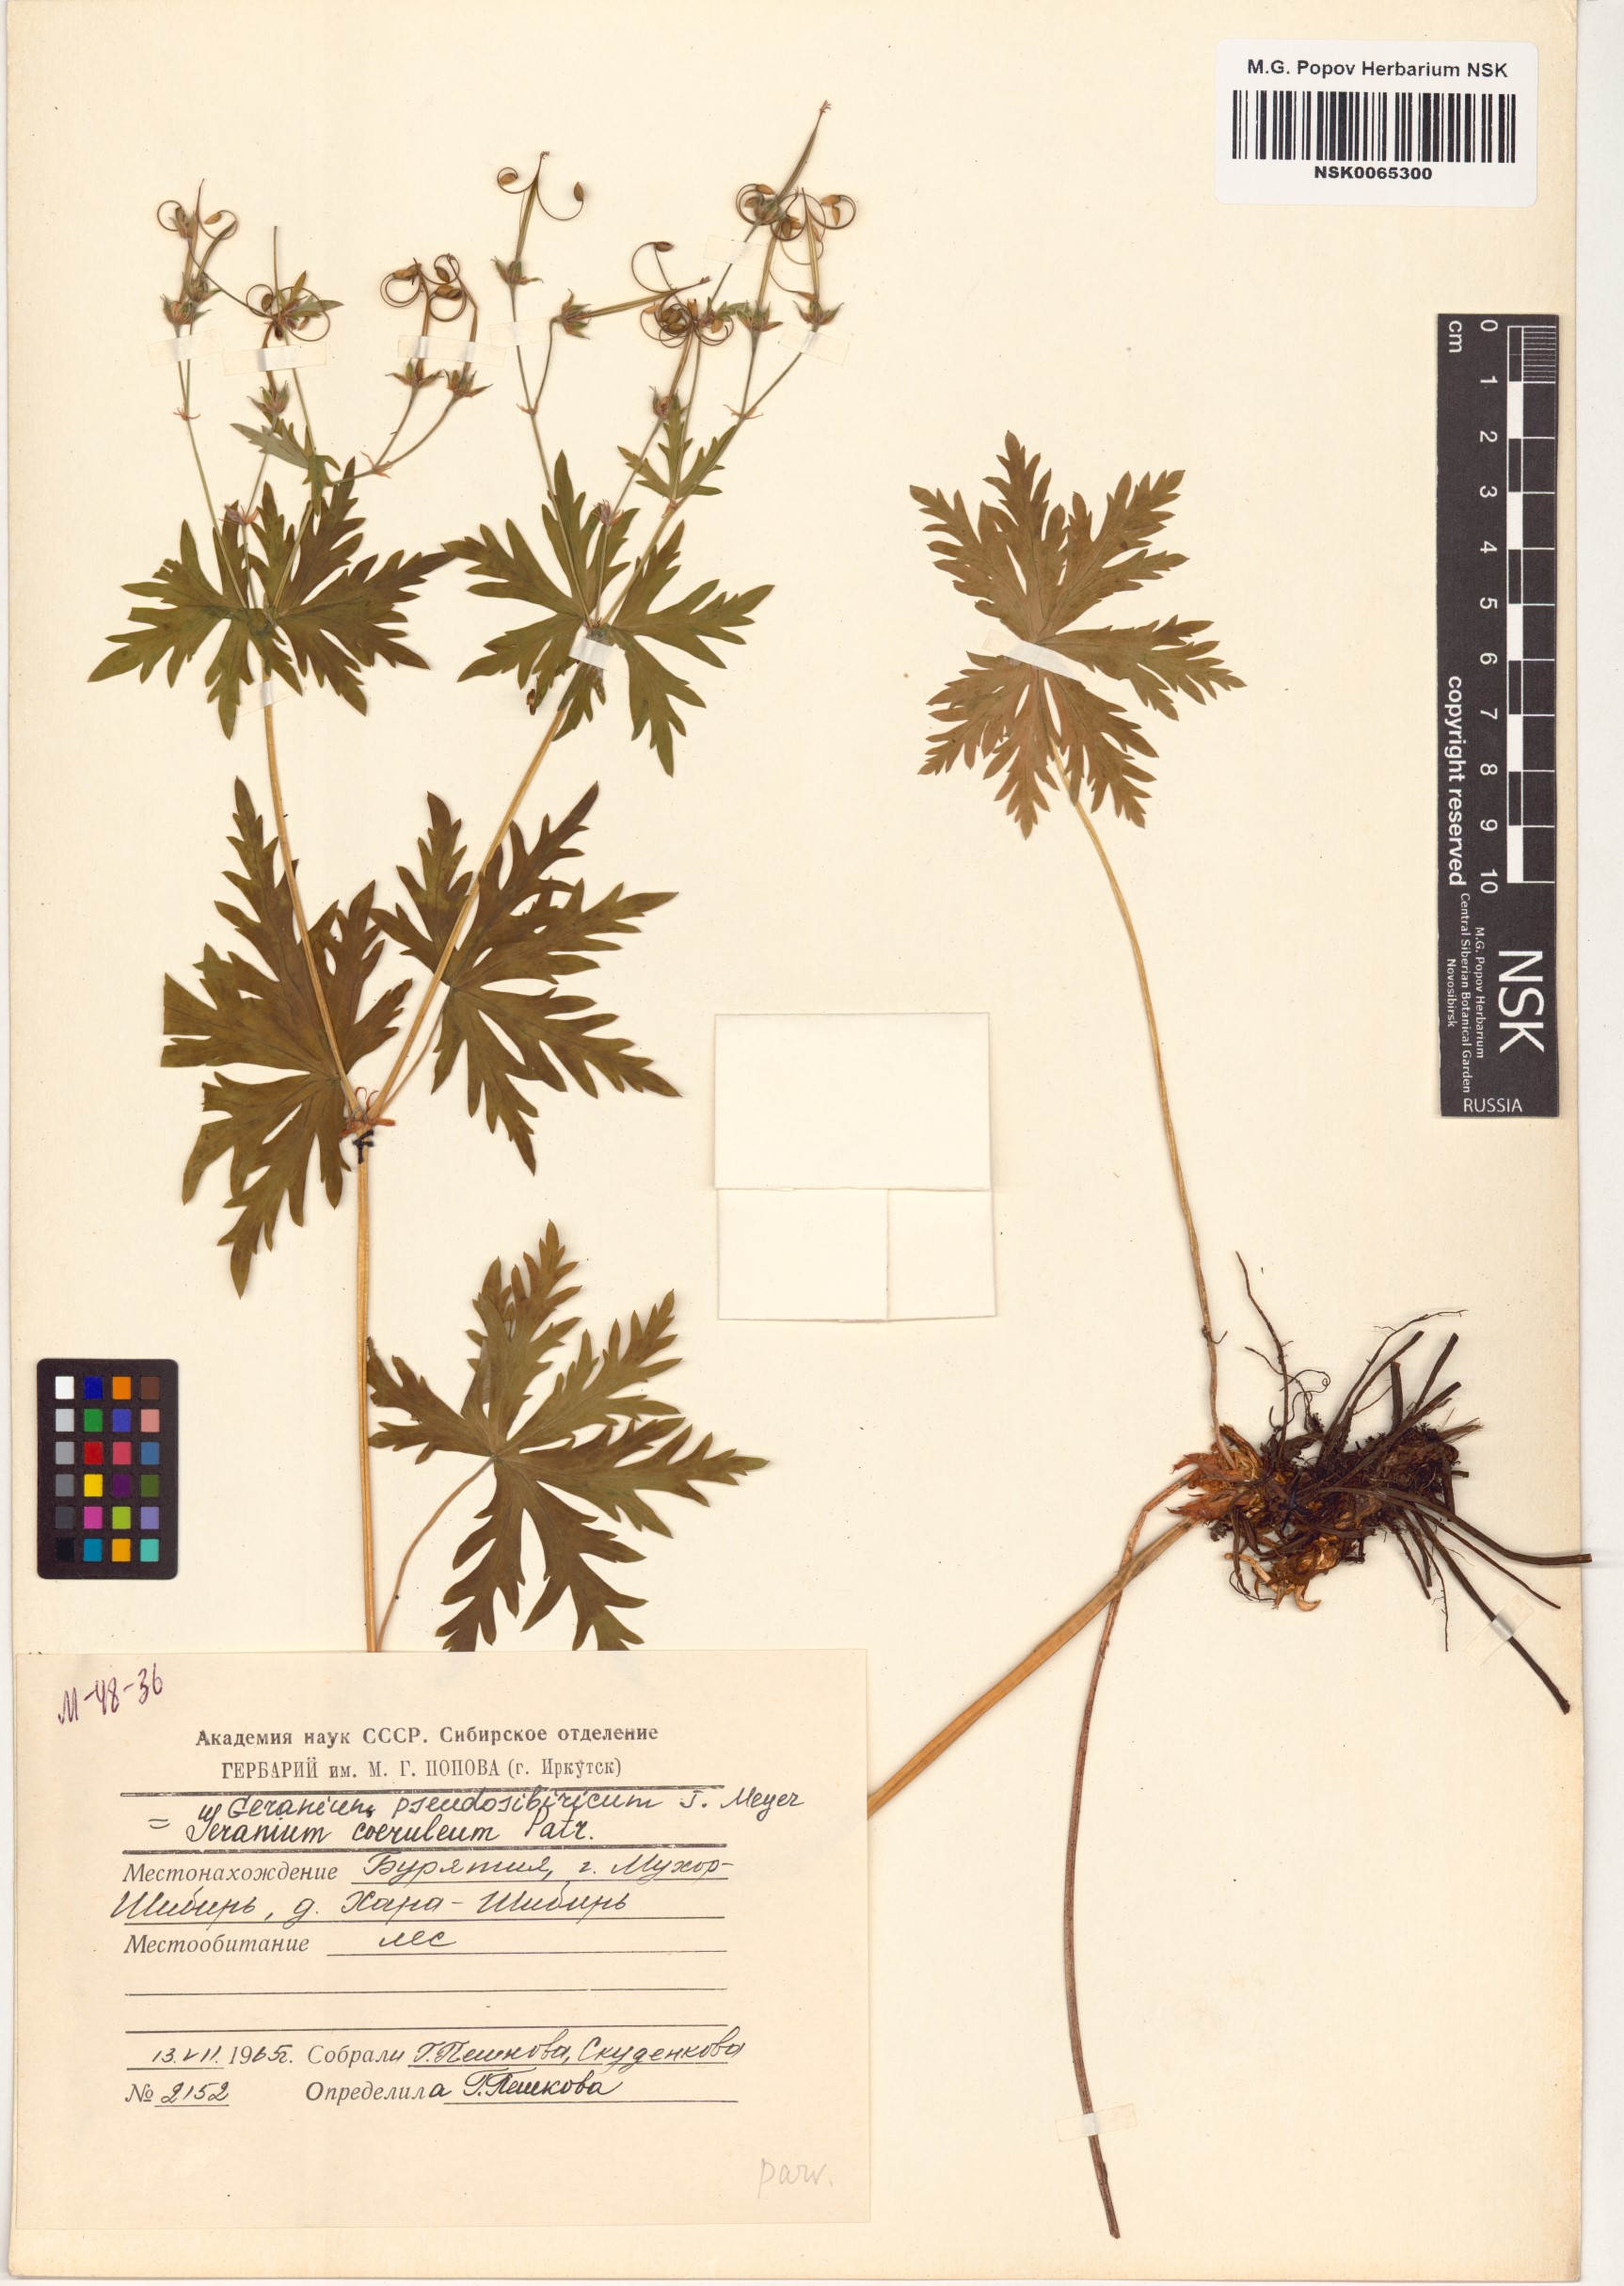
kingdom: Plantae
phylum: Tracheophyta
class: Magnoliopsida
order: Geraniales
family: Geraniaceae
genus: Geranium
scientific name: Geranium pseudosibiricum
